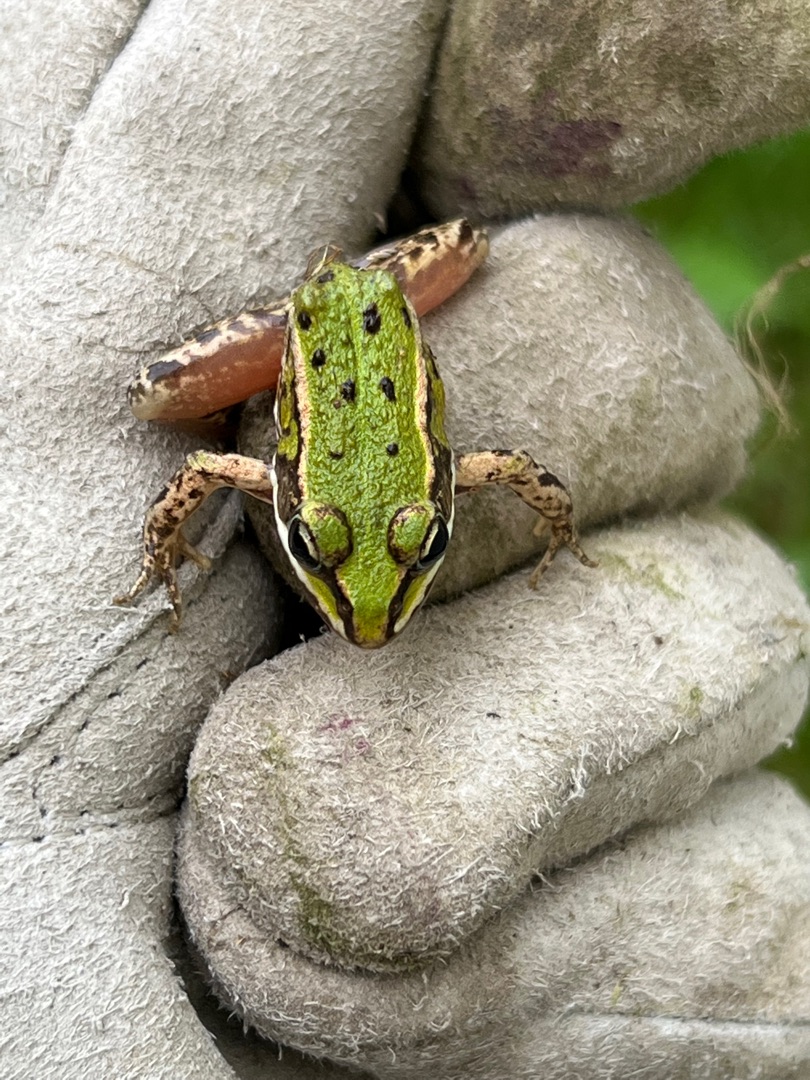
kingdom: Animalia
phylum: Chordata
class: Amphibia
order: Anura
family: Ranidae
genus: Pelophylax
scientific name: Pelophylax lessonae
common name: Grøn frø
